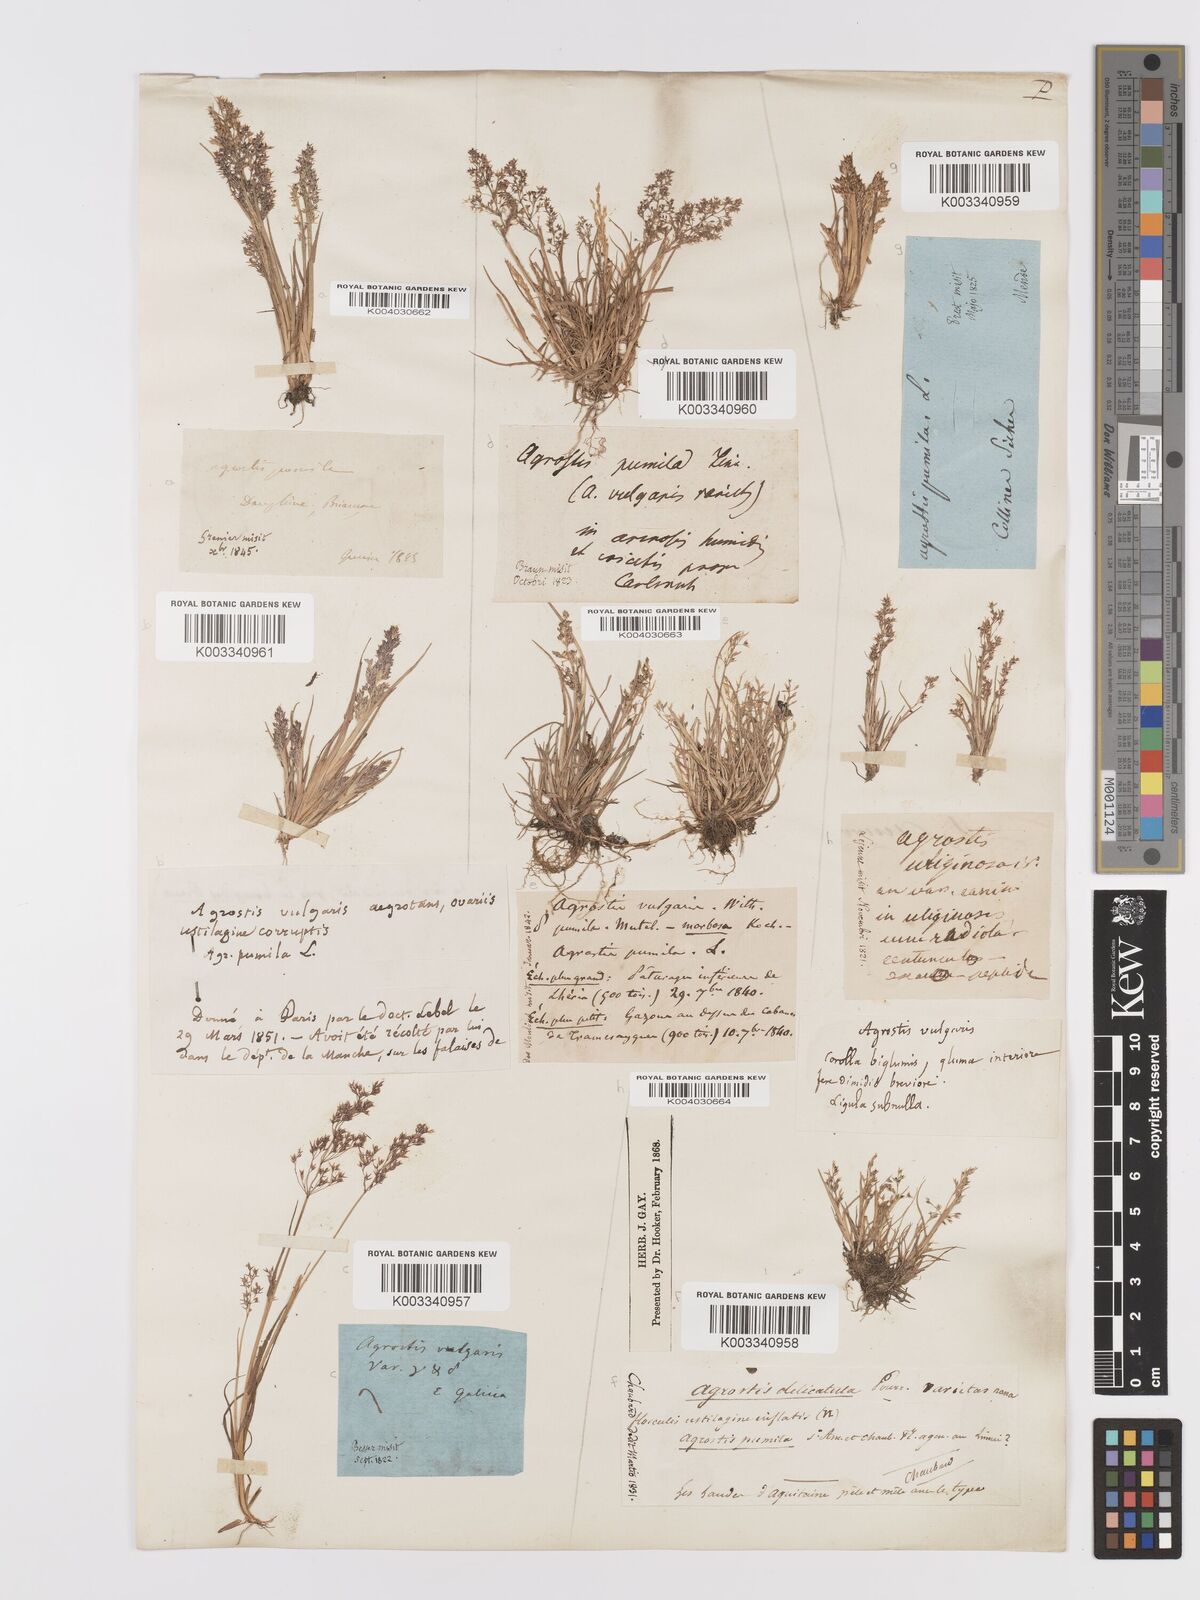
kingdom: Plantae
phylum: Tracheophyta
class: Liliopsida
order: Poales
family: Poaceae
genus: Agrostis
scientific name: Agrostis capillaris
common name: Colonial bentgrass
